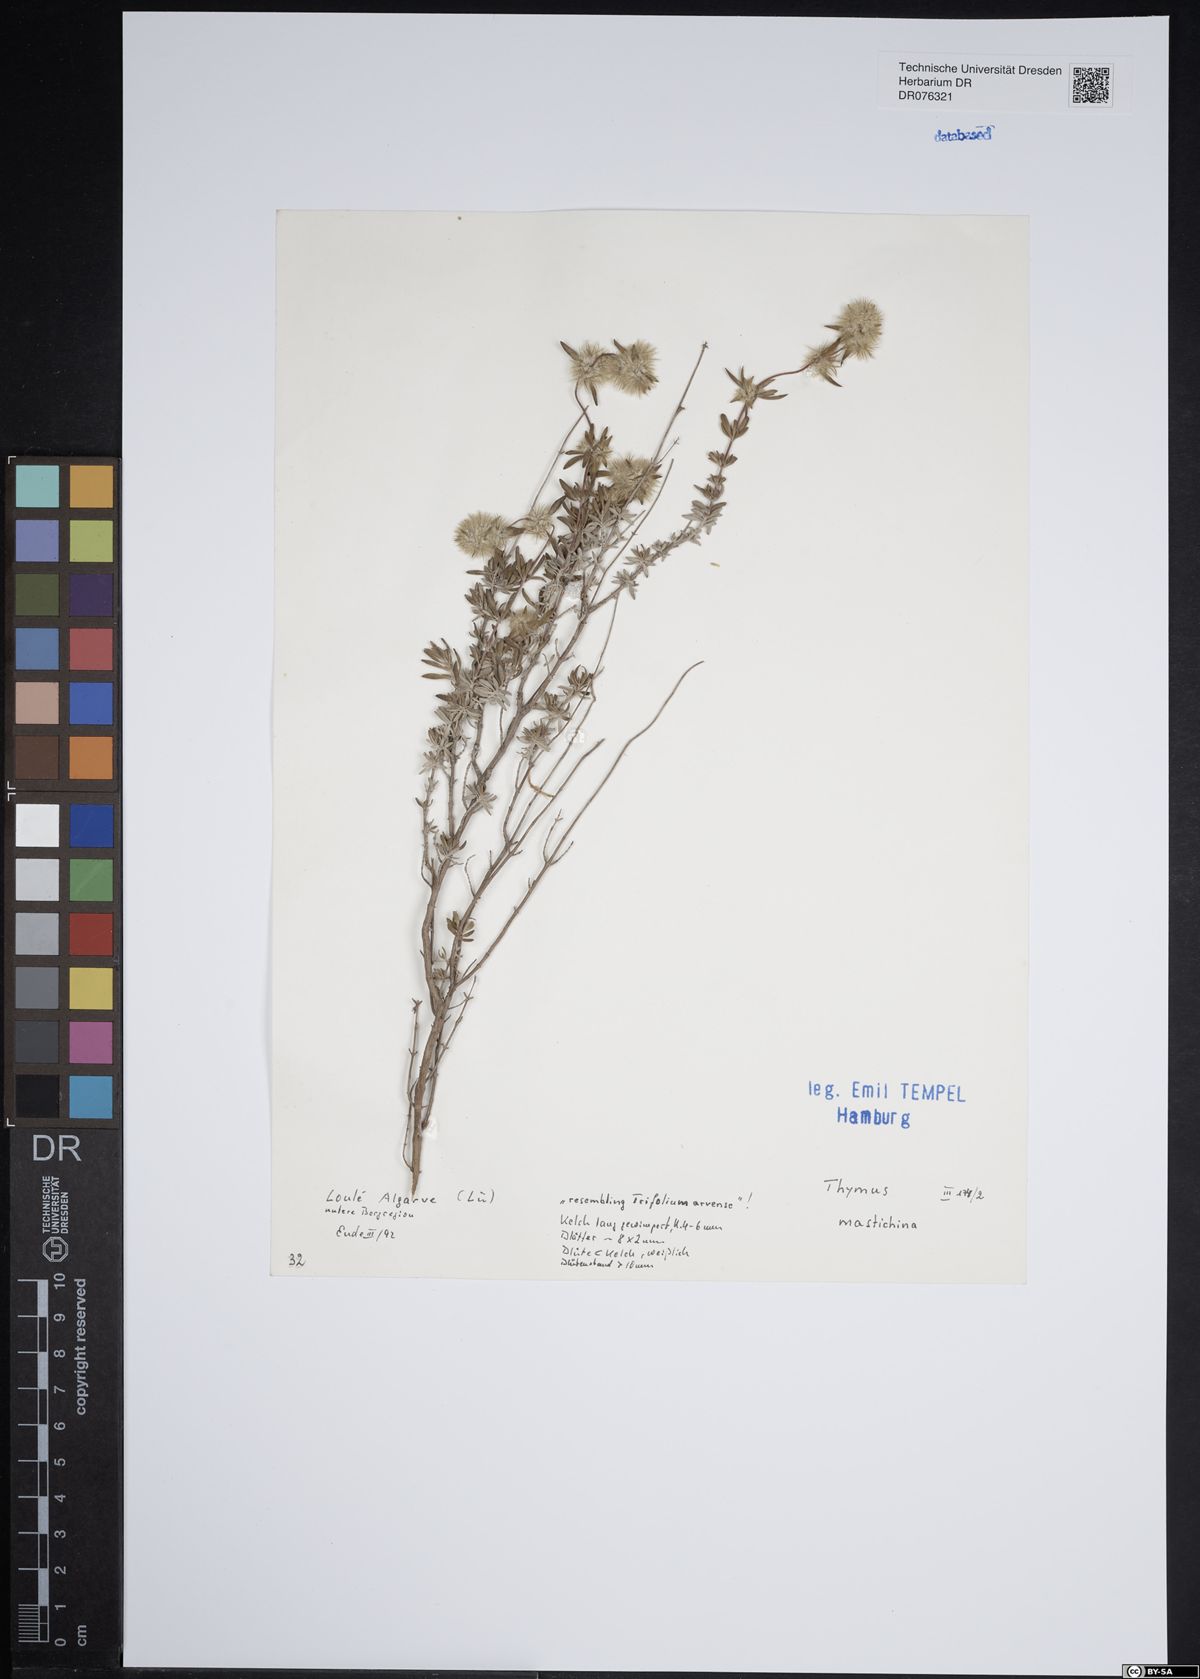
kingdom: Plantae
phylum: Tracheophyta
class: Magnoliopsida
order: Lamiales
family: Lamiaceae
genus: Thymus
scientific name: Thymus mastichina
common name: Mastic thyme
